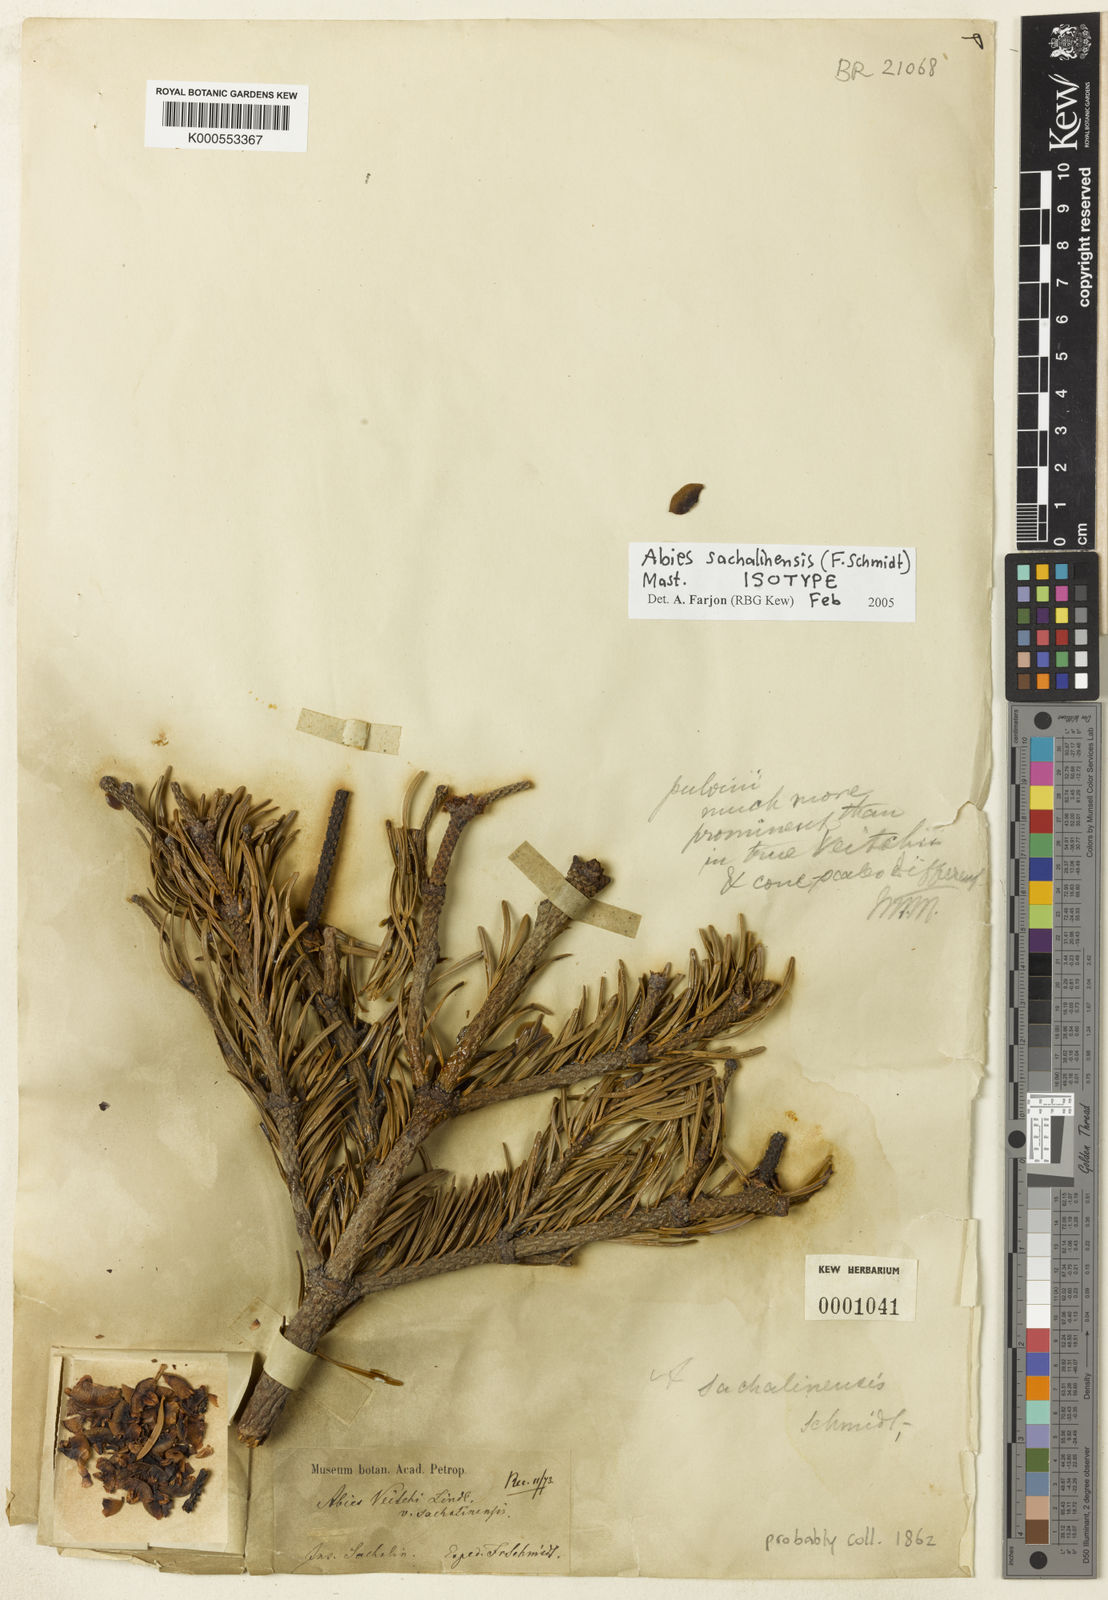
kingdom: Plantae
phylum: Tracheophyta
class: Pinopsida
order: Pinales
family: Pinaceae
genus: Abies
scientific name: Abies sachalinensis
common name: Sakhalin fir
